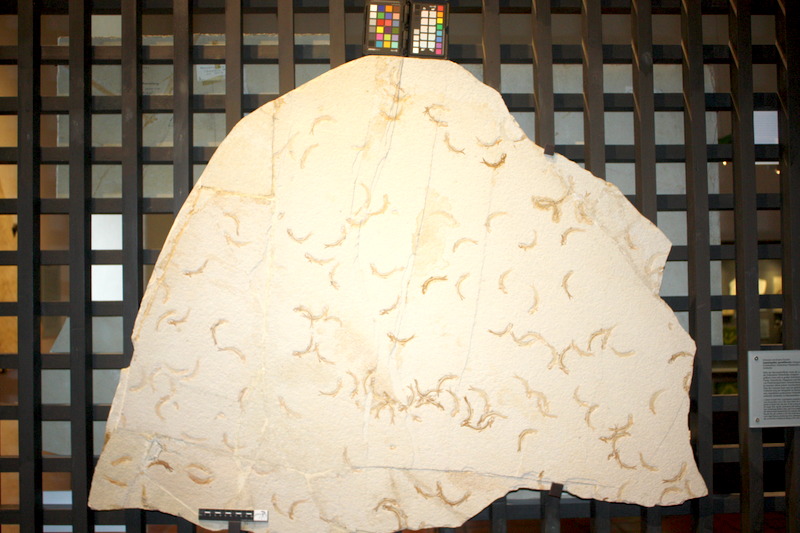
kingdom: Animalia
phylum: Chordata
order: Salmoniformes
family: Orthogonikleithridae
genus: Leptolepides
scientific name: Leptolepides sprattiformis
